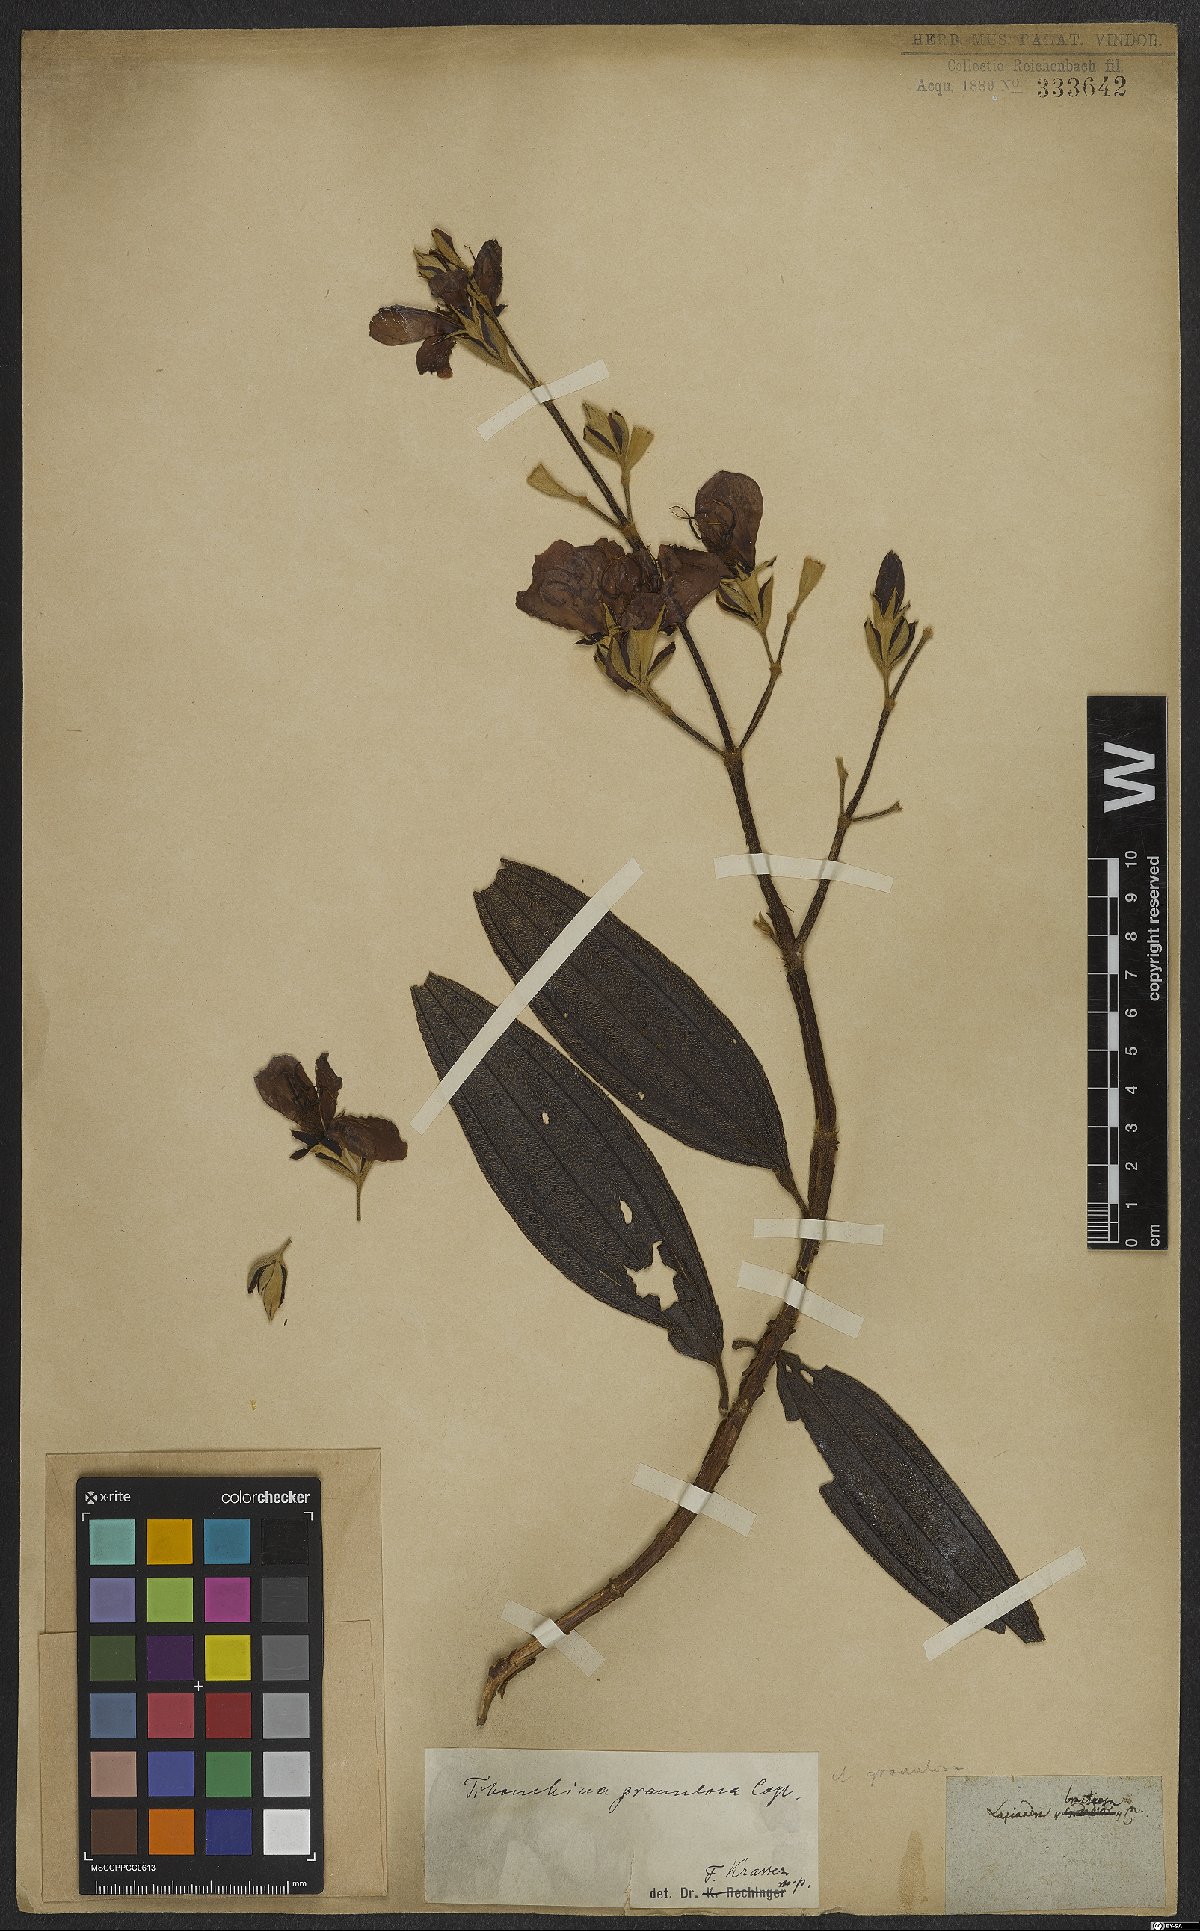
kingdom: Plantae
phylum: Tracheophyta
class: Magnoliopsida
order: Myrtales
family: Melastomataceae
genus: Pleroma
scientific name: Pleroma granulosum
